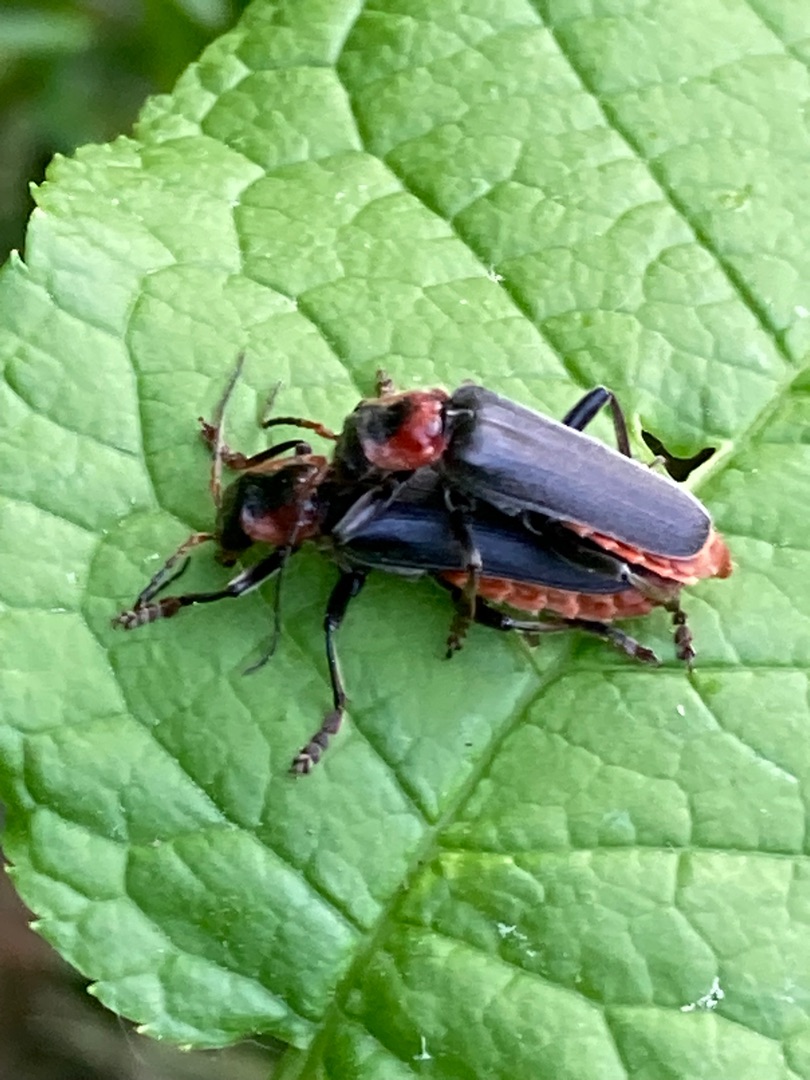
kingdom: Animalia
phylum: Arthropoda
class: Insecta
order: Coleoptera
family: Cantharidae
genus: Cantharis
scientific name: Cantharis fusca
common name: Stor blødvinge
